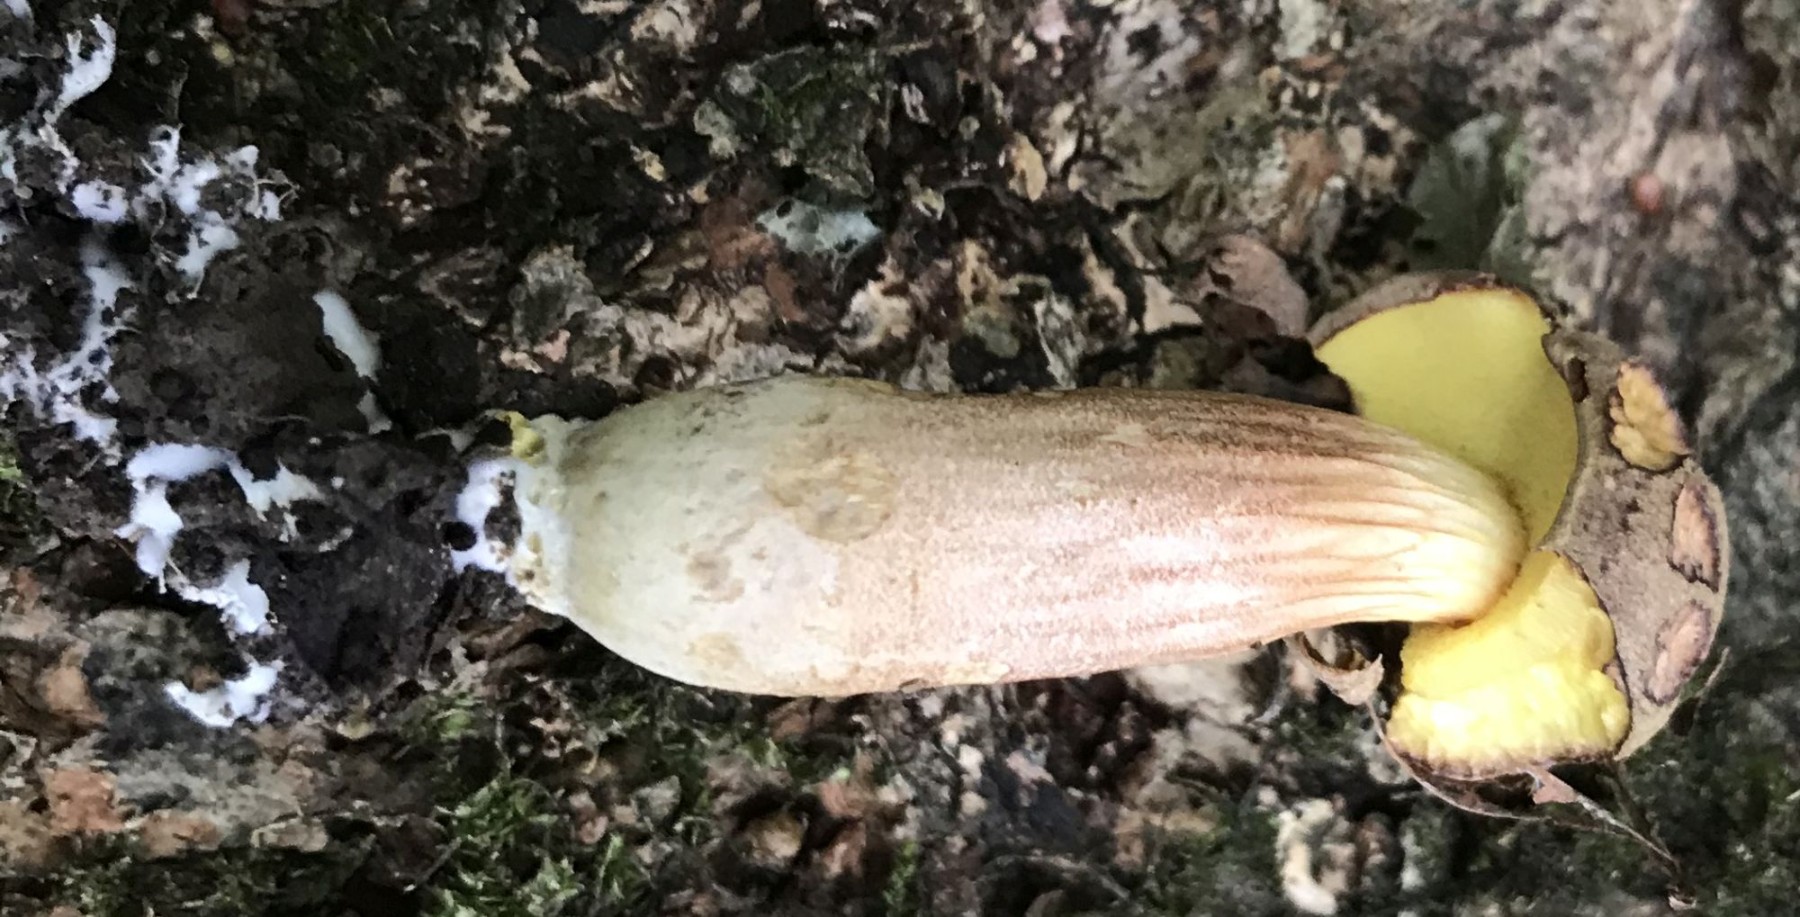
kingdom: Fungi
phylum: Basidiomycota
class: Agaricomycetes
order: Boletales
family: Boletaceae
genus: Xerocomus
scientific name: Xerocomus subtomentosus
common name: filtet rørhat
